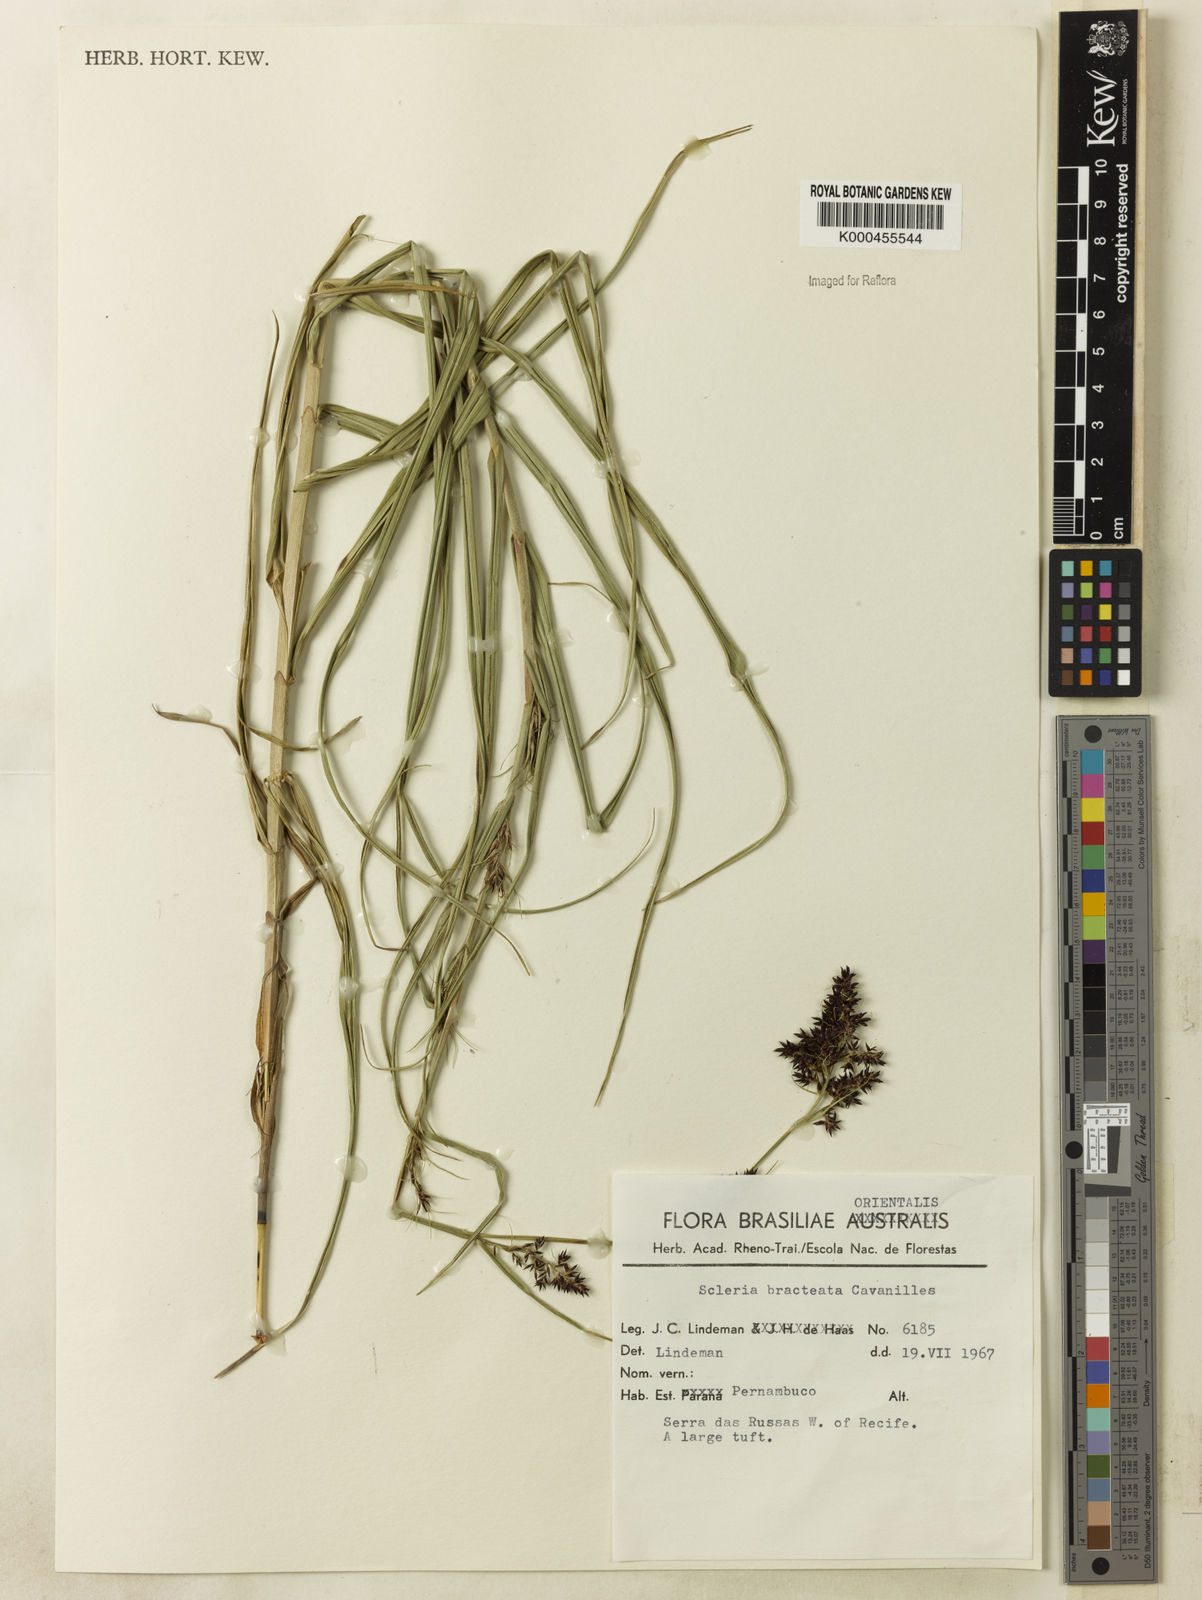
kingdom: Plantae
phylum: Tracheophyta
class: Liliopsida
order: Poales
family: Cyperaceae
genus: Scleria
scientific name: Scleria bracteata
